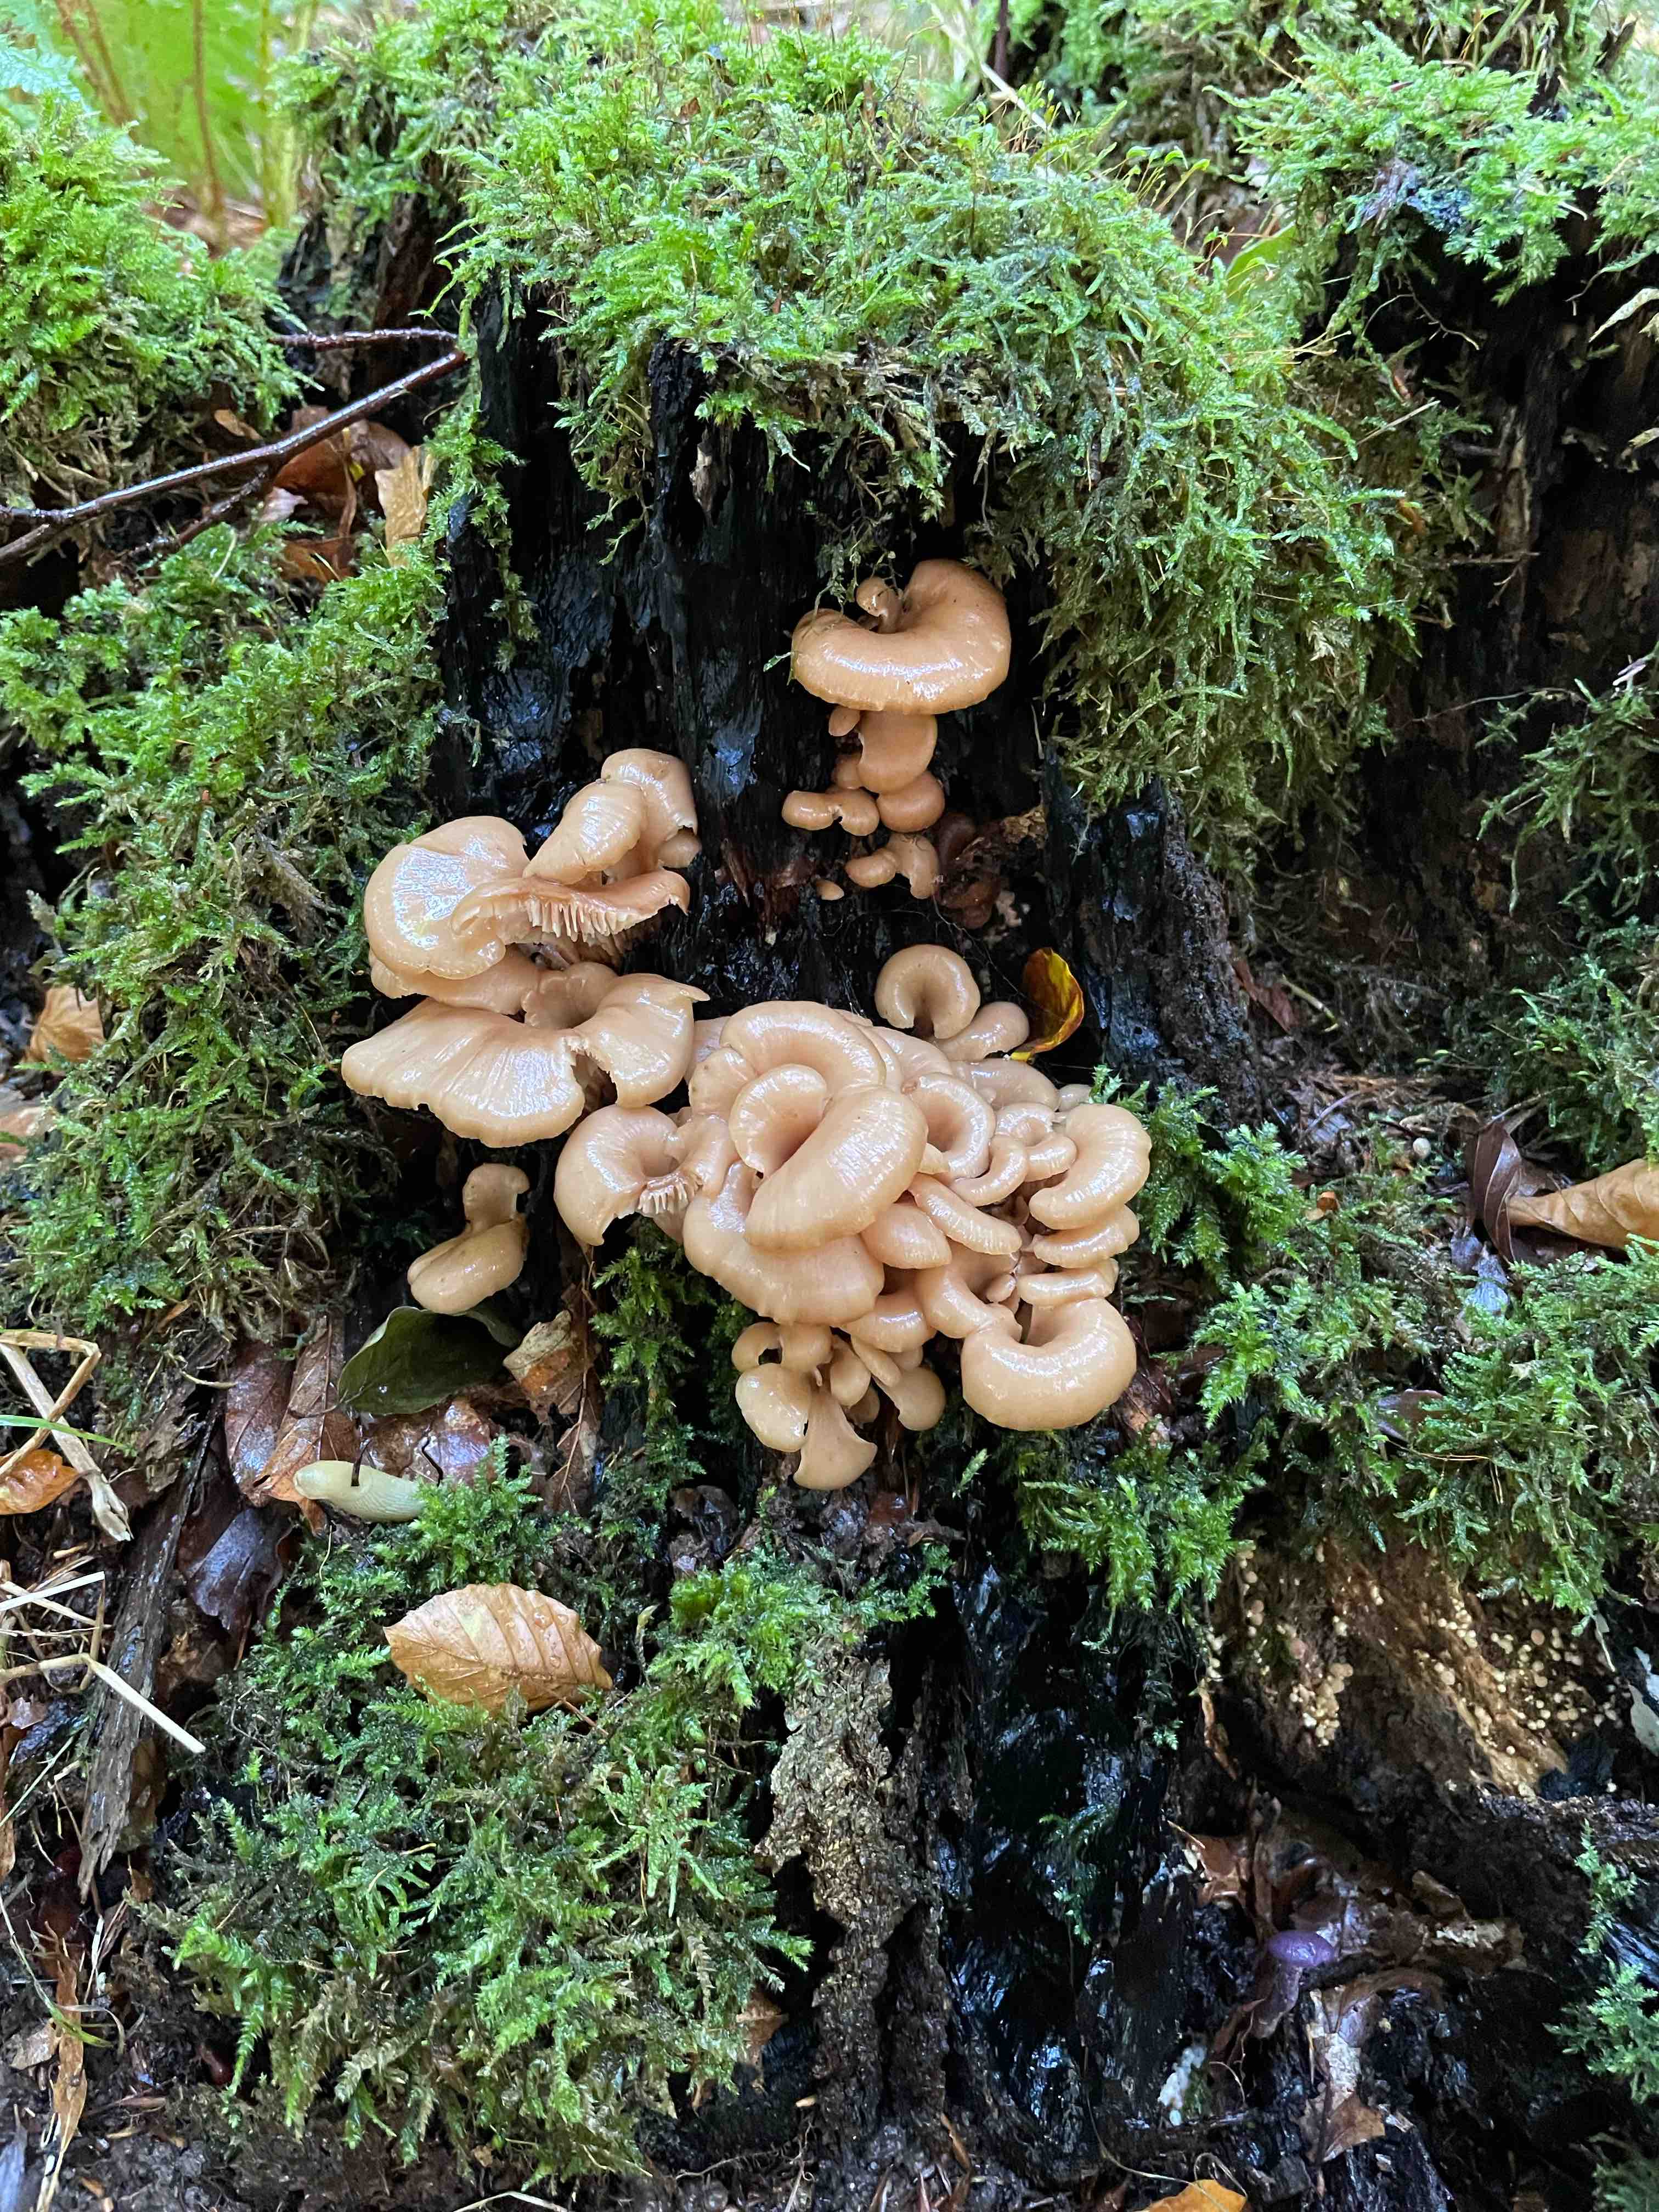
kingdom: Fungi
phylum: Basidiomycota
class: Agaricomycetes
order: Russulales
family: Auriscalpiaceae
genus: Lentinellus
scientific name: Lentinellus cochleatus
